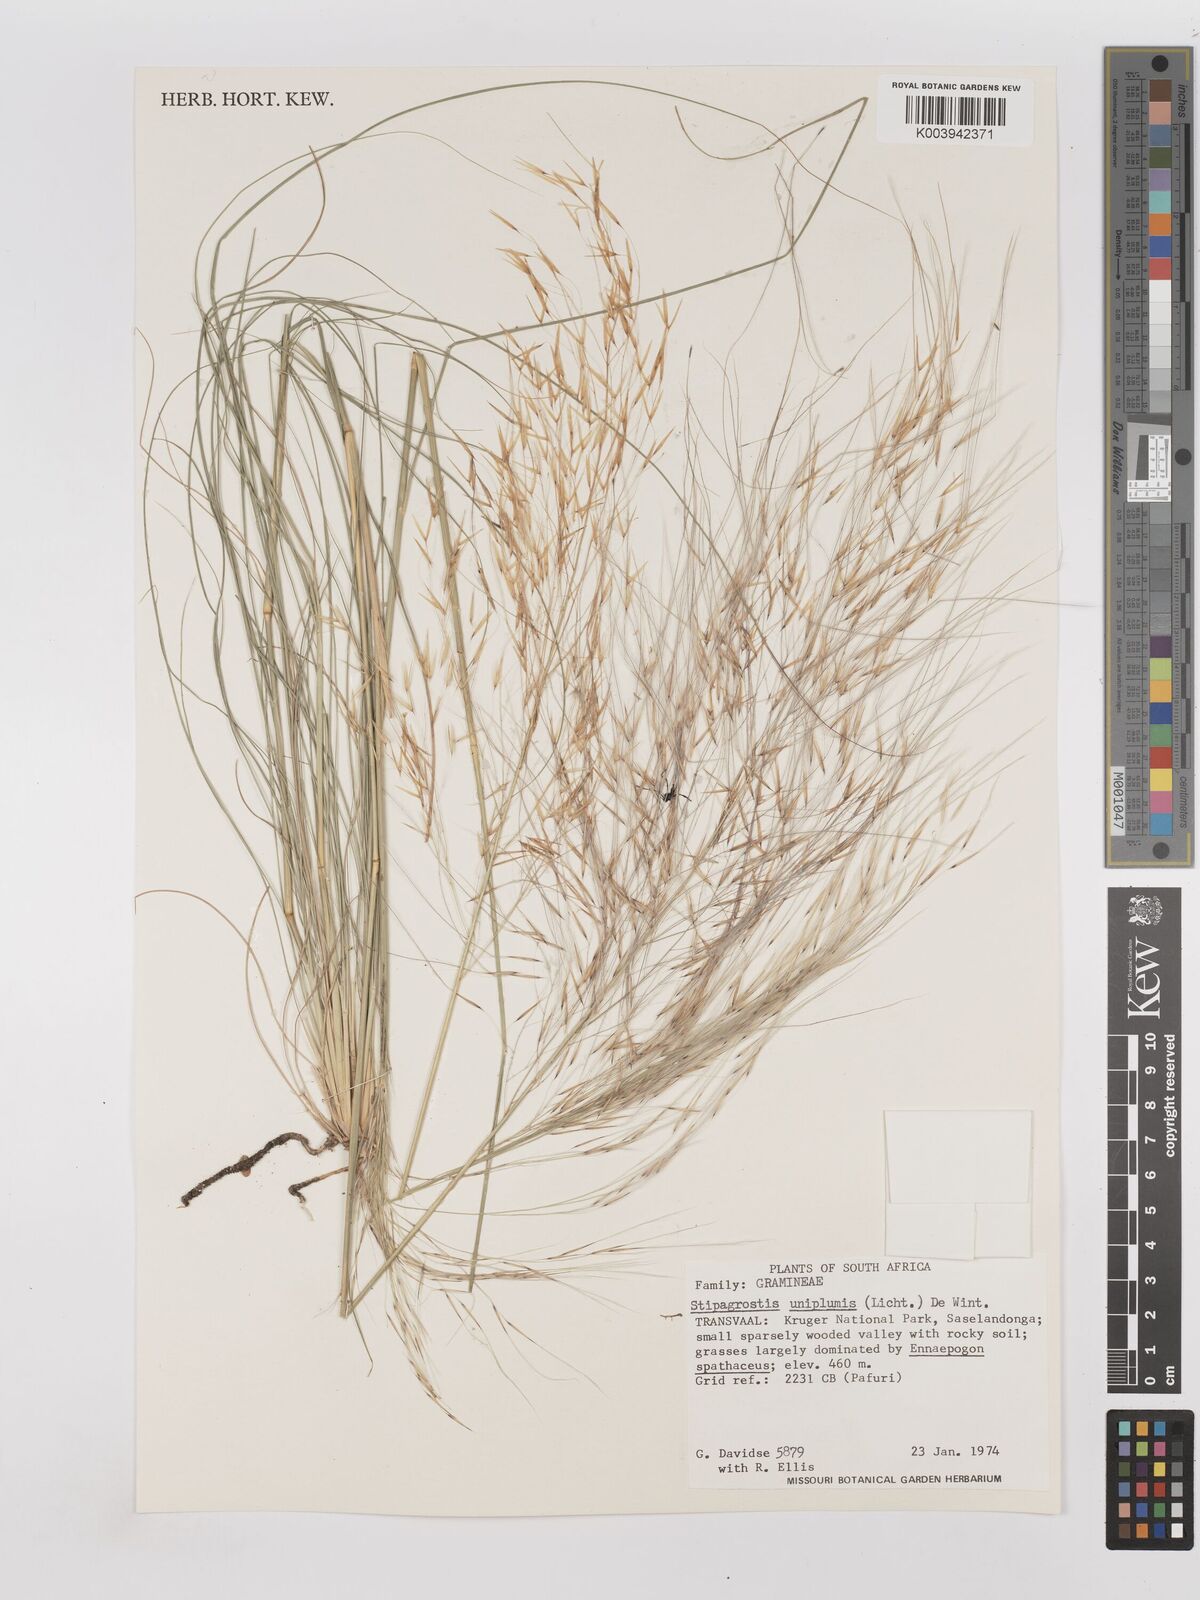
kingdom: Plantae
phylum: Tracheophyta
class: Liliopsida
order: Poales
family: Poaceae
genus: Stipagrostis
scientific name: Stipagrostis uniplumis
